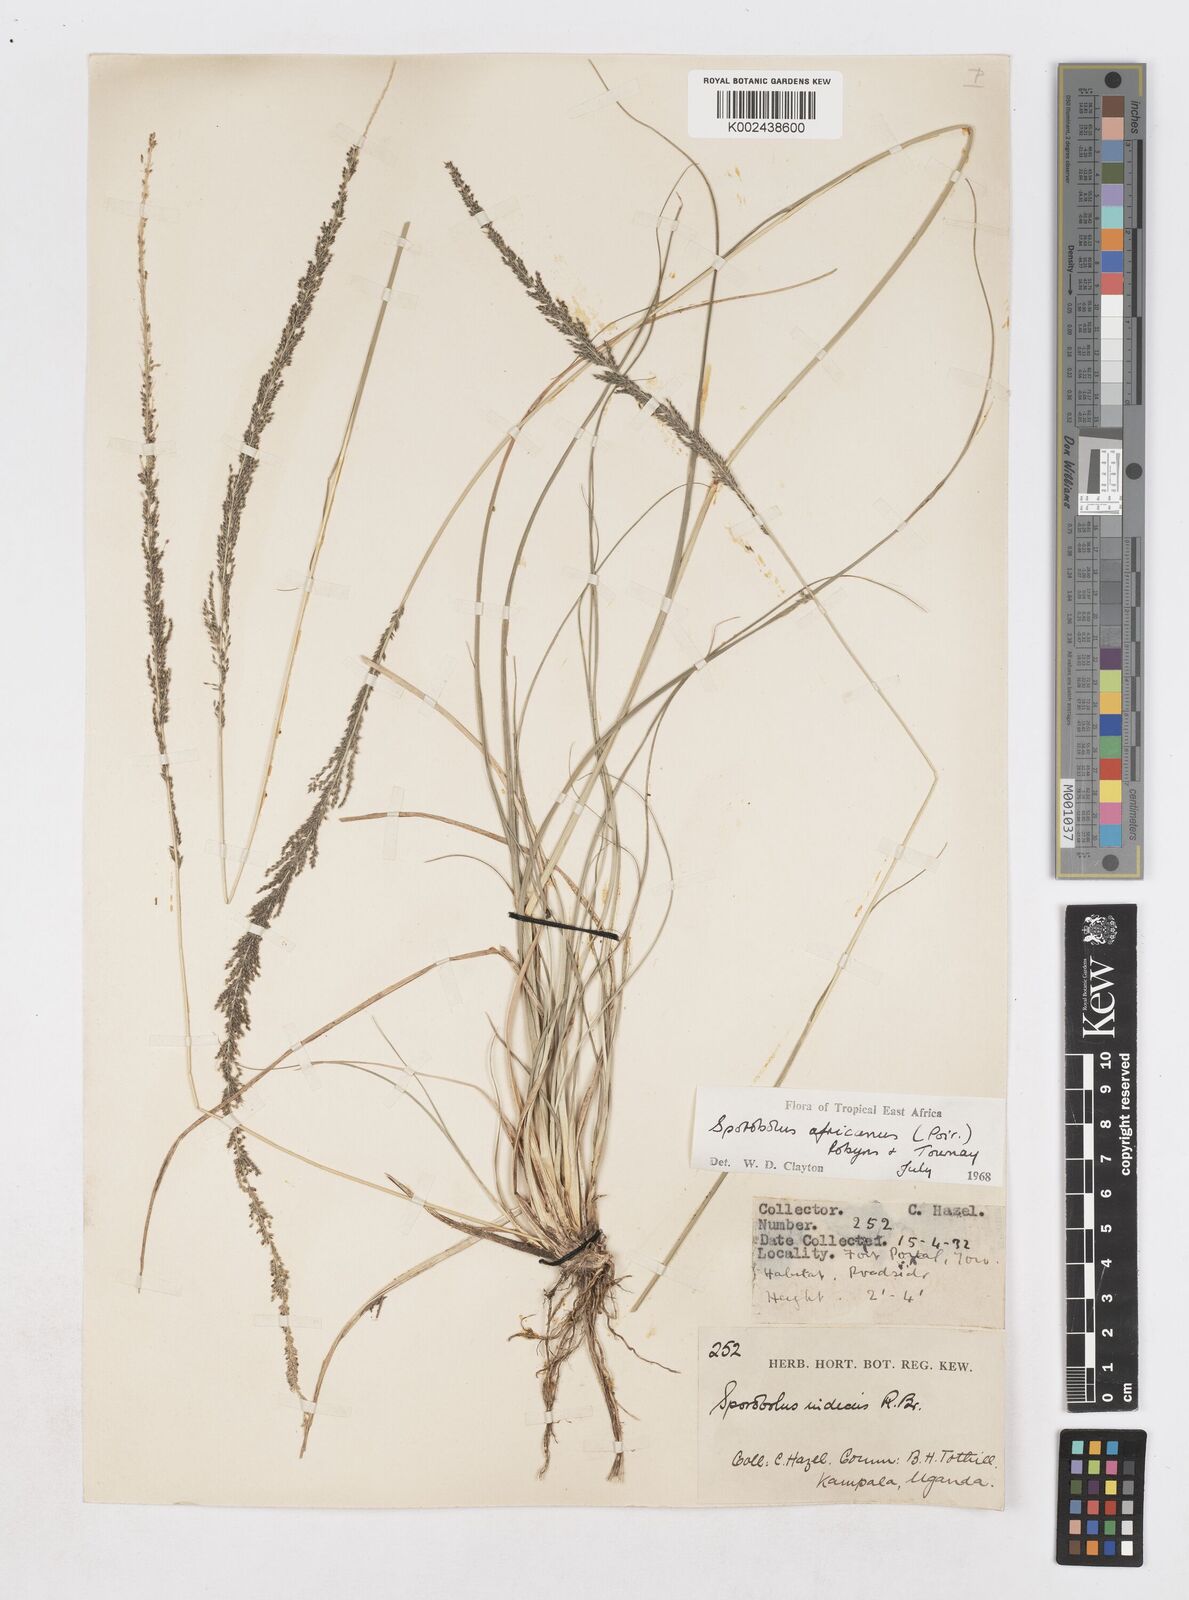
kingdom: Plantae
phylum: Tracheophyta
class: Liliopsida
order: Poales
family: Poaceae
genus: Sporobolus
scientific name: Sporobolus africanus
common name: African dropseed
